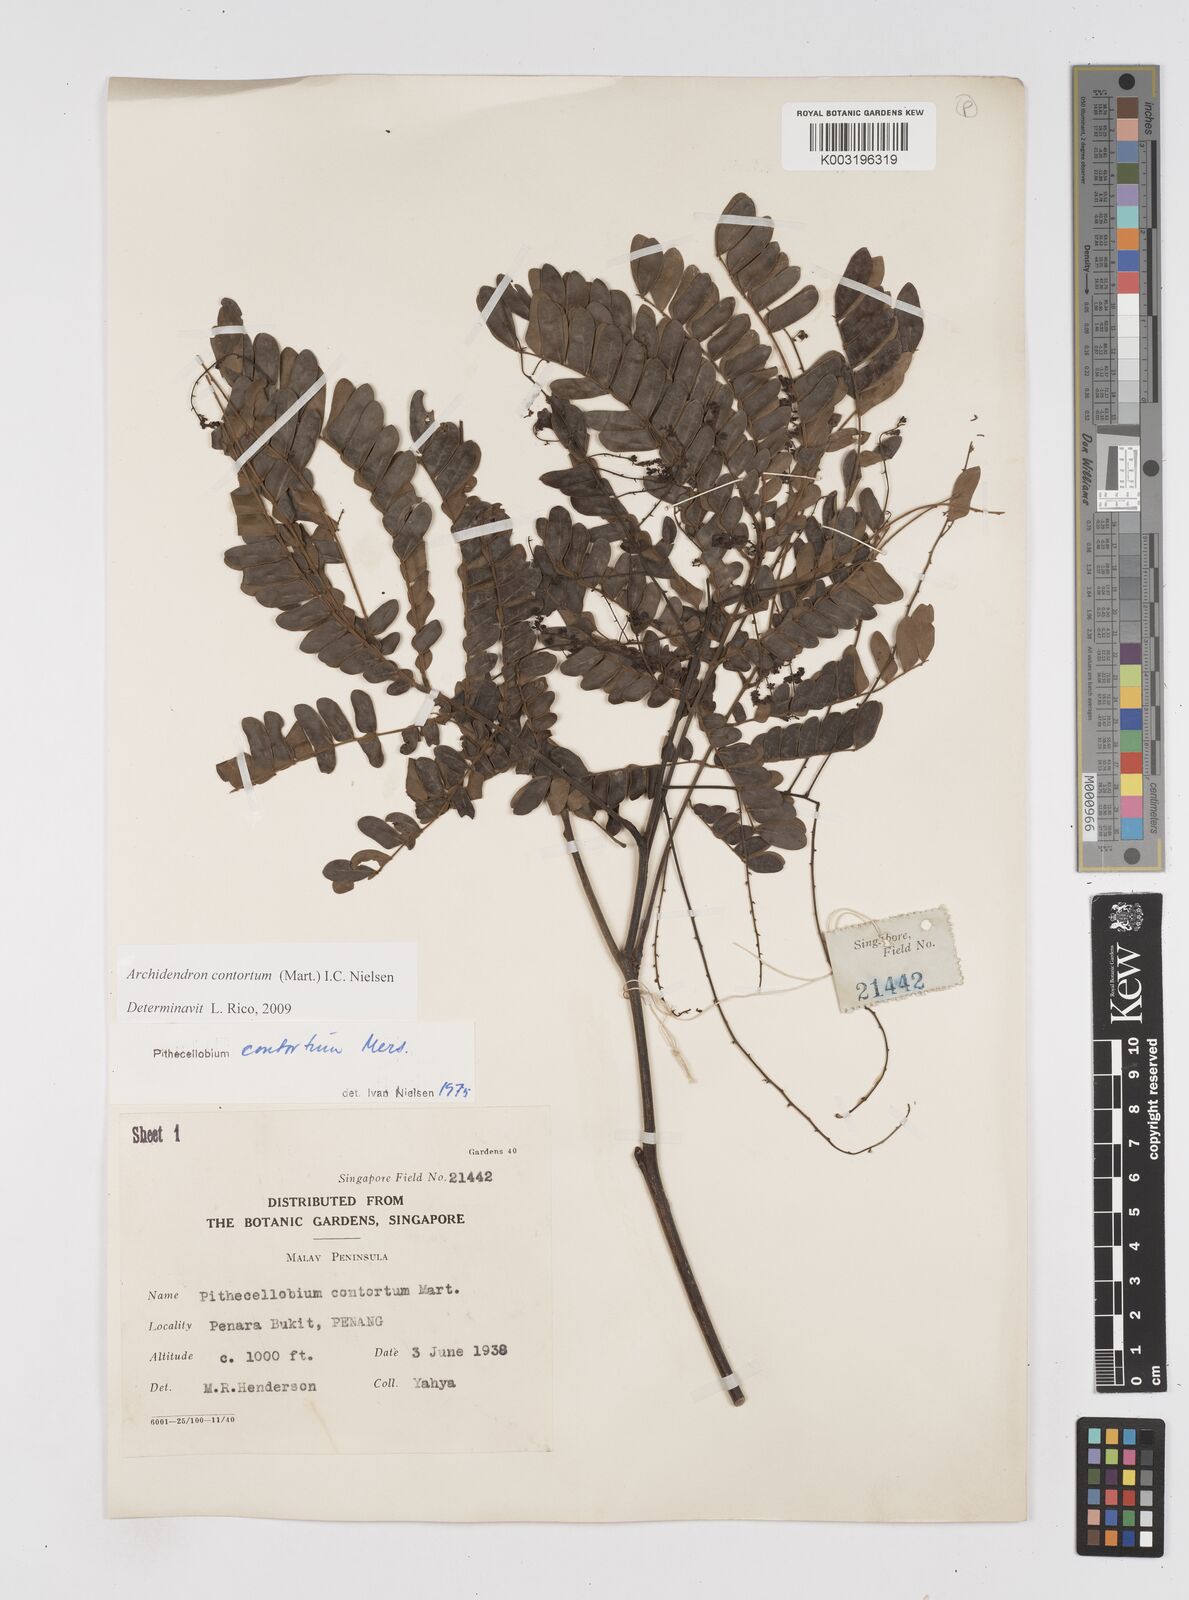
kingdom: Plantae
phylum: Tracheophyta
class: Magnoliopsida
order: Fabales
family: Fabaceae
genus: Archidendron
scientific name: Archidendron contortum
